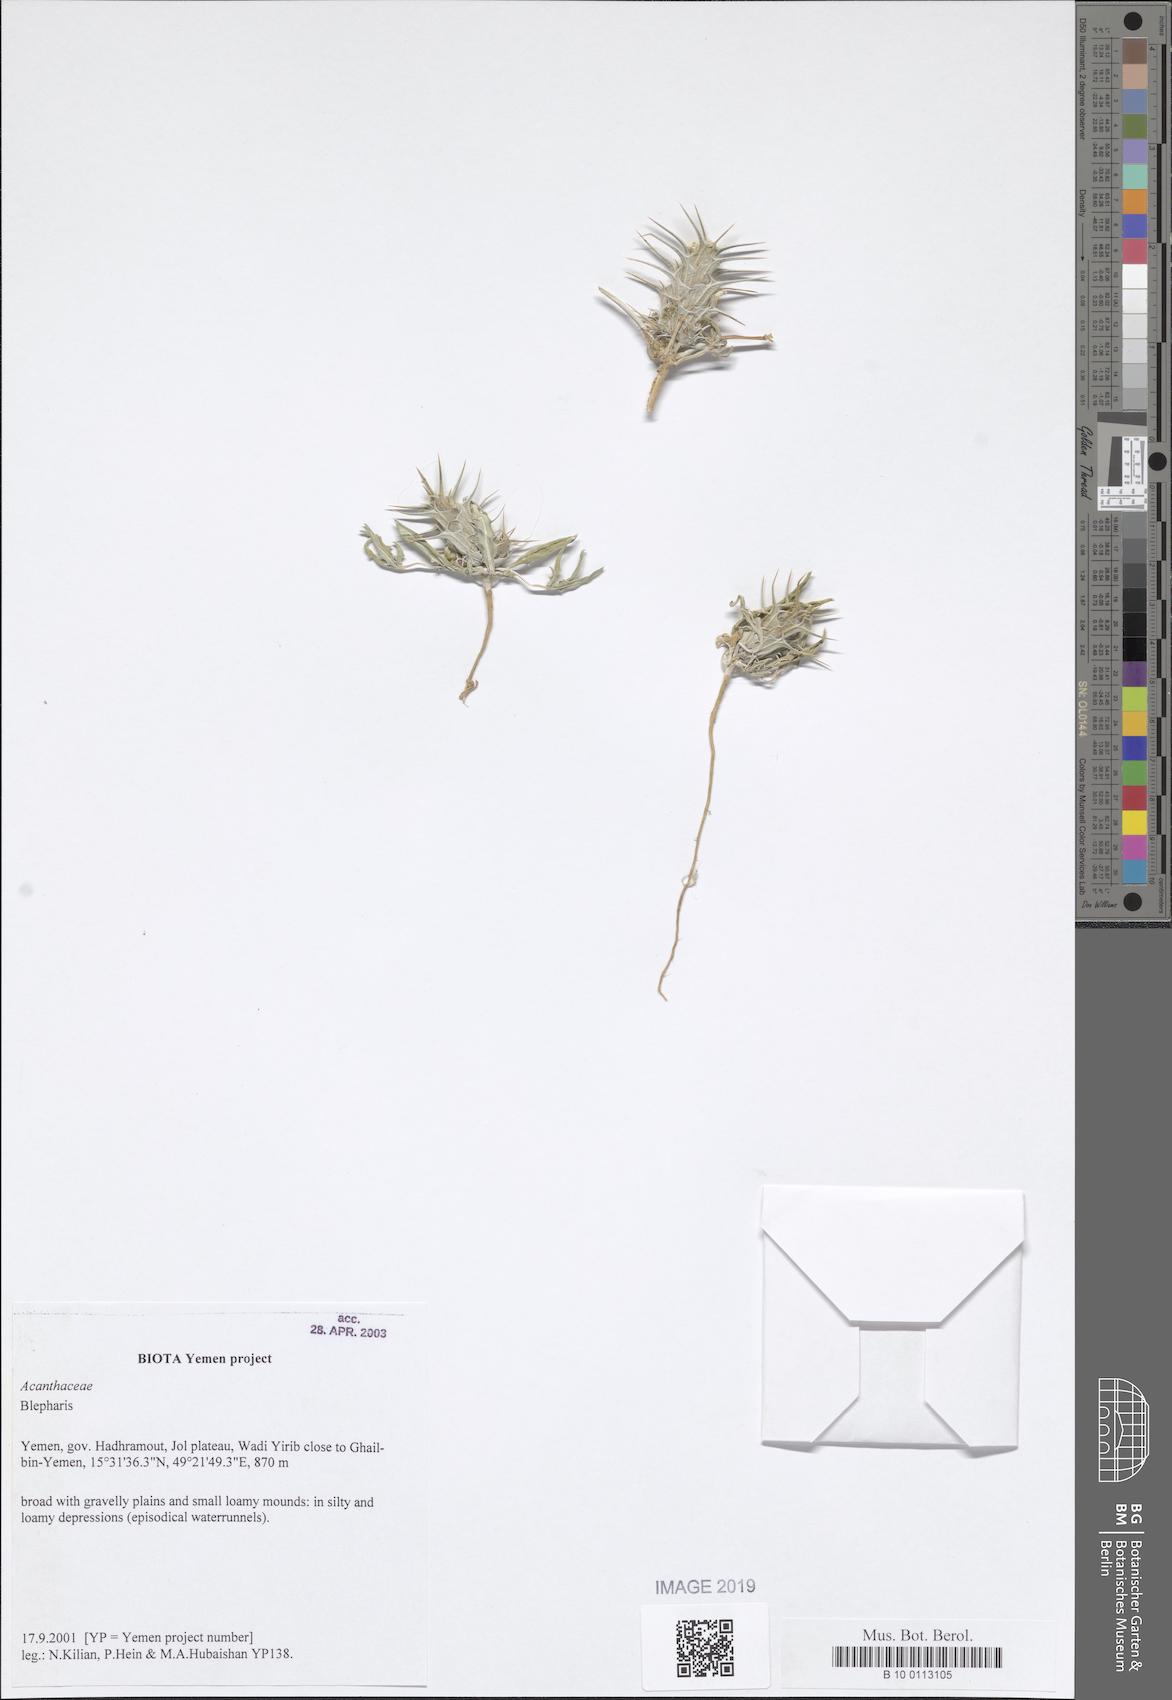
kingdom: Plantae
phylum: Tracheophyta
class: Magnoliopsida
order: Lamiales
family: Acanthaceae
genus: Blepharis
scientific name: Blepharis
